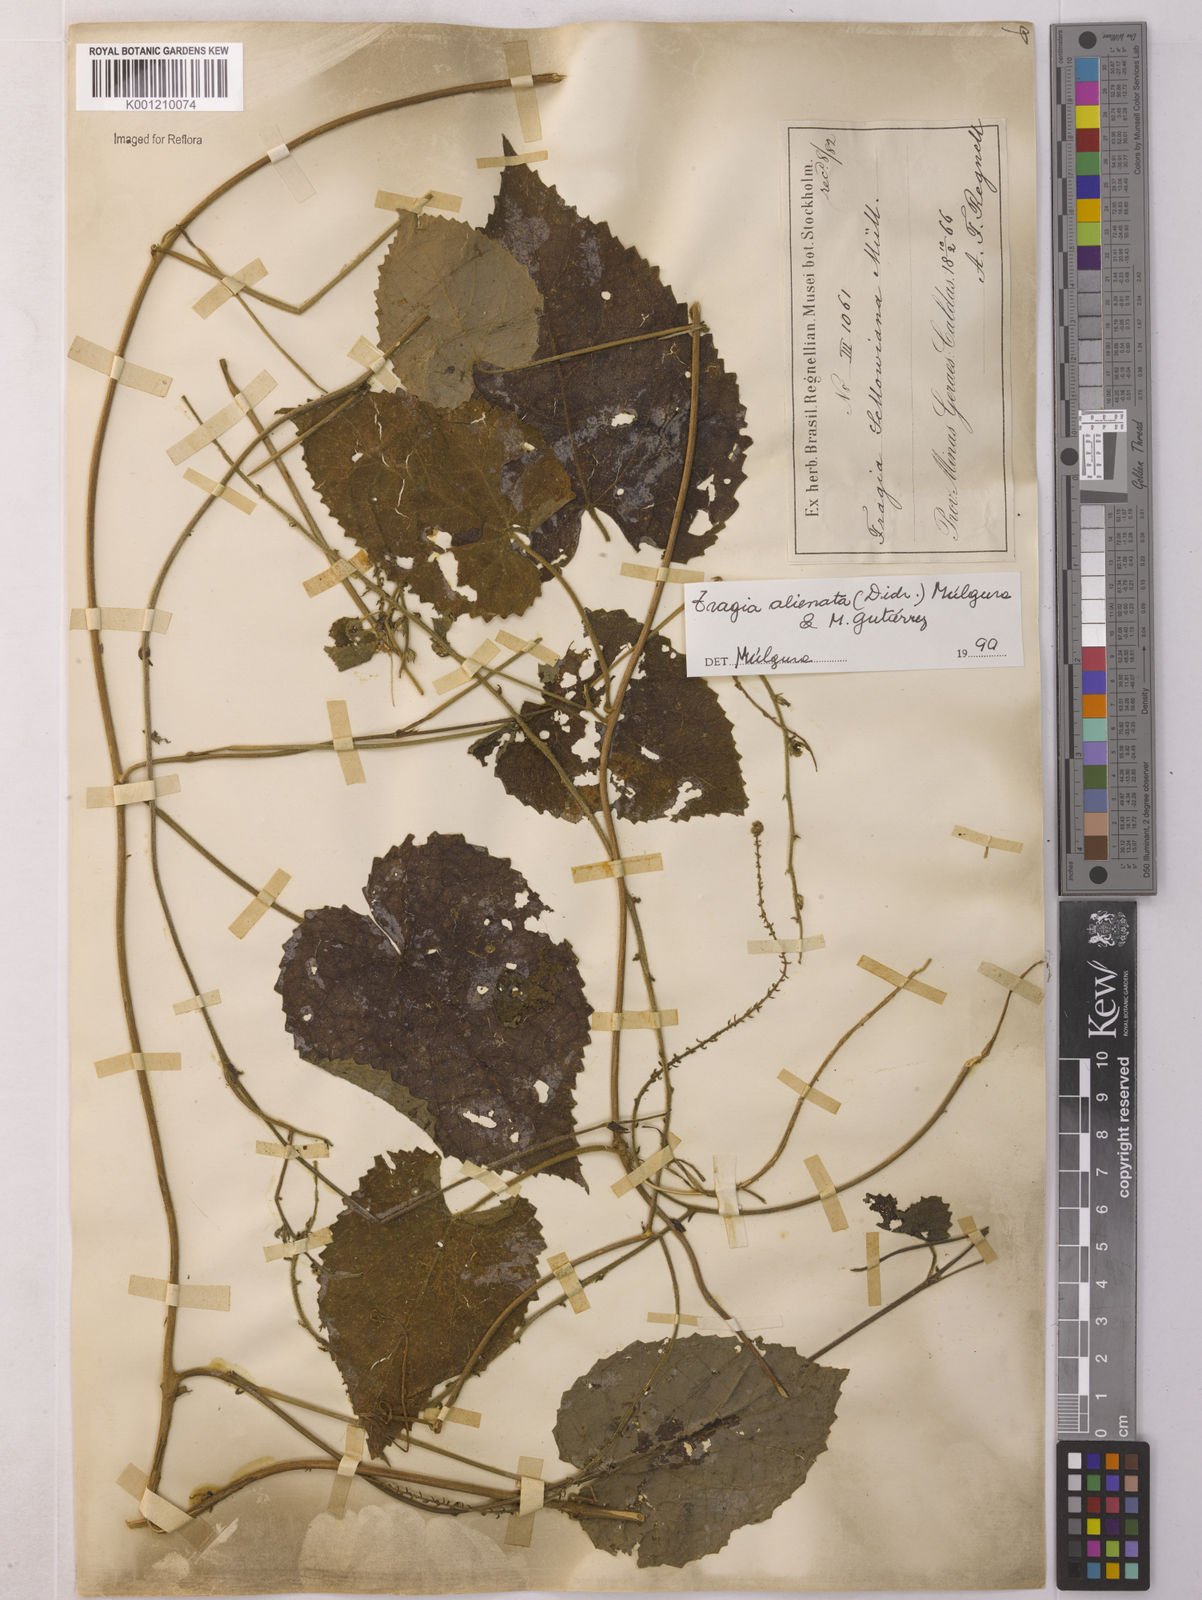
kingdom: Plantae
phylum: Tracheophyta
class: Magnoliopsida
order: Malpighiales
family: Euphorbiaceae
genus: Bia
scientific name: Bia alienata
